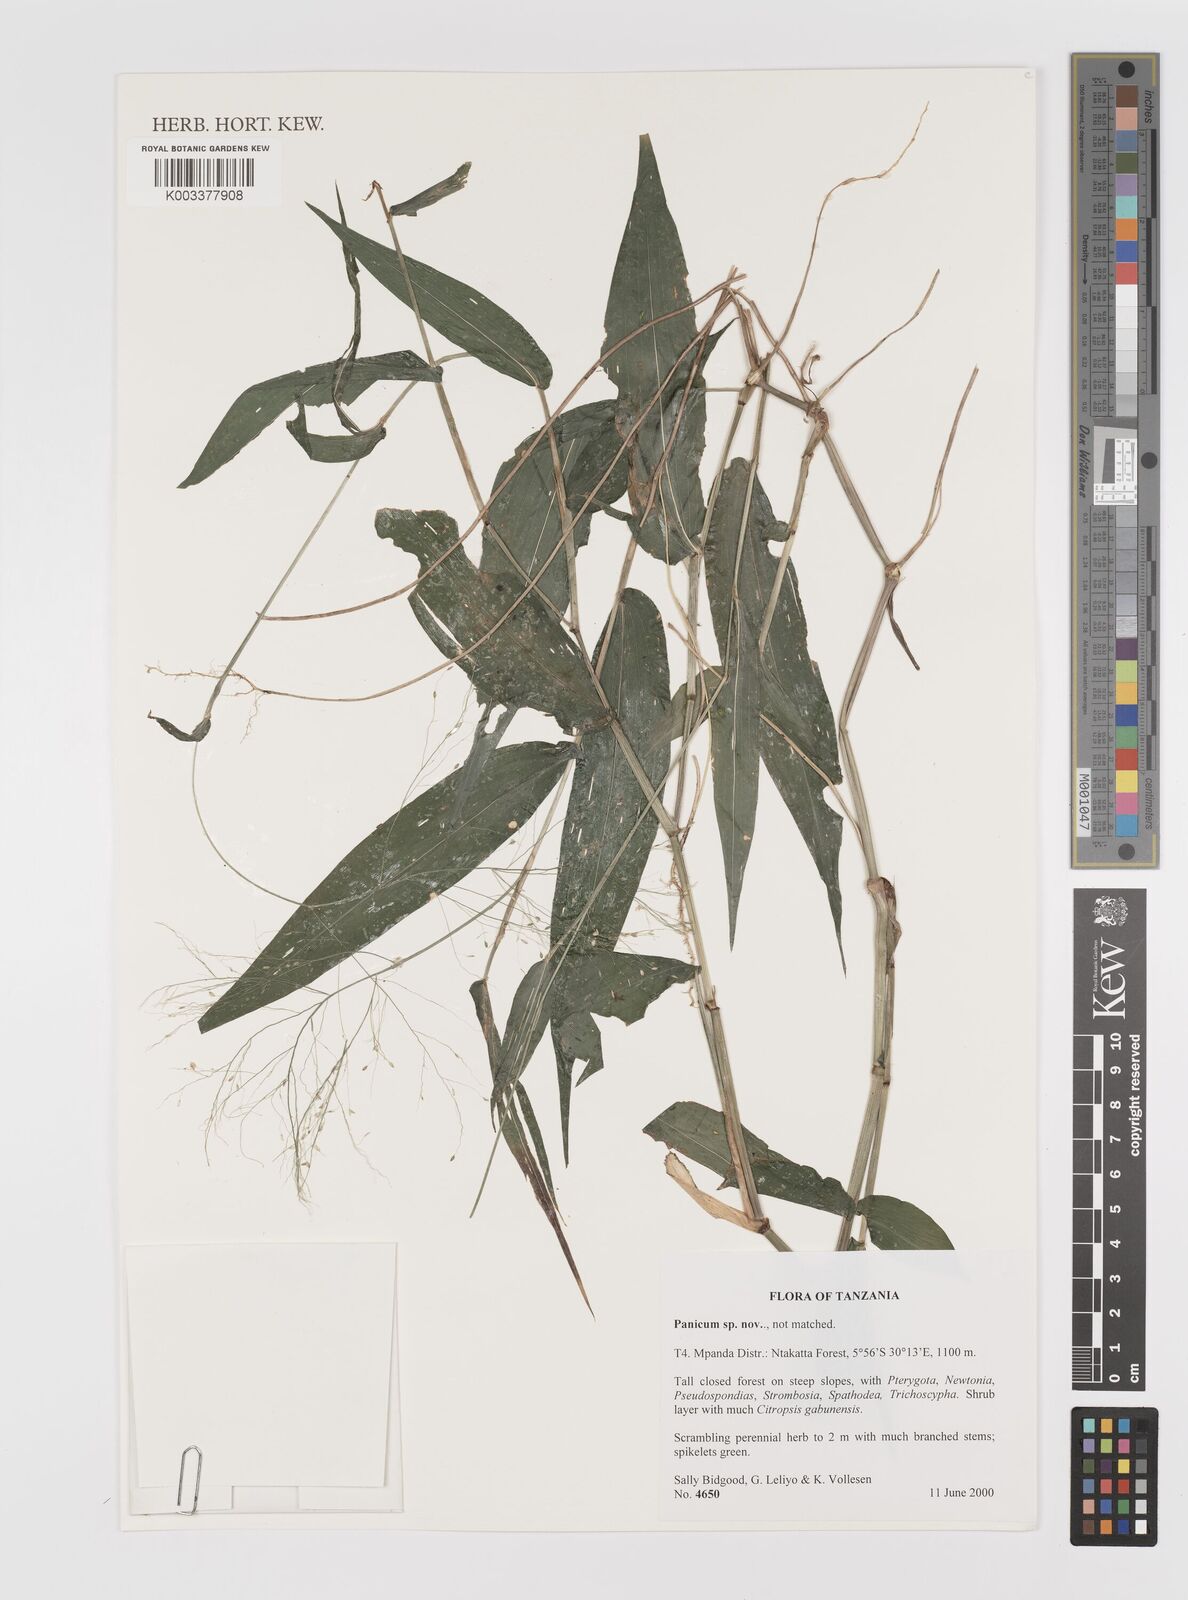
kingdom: Plantae
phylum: Tracheophyta
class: Liliopsida
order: Poales
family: Poaceae
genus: Panicum
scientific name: Panicum
